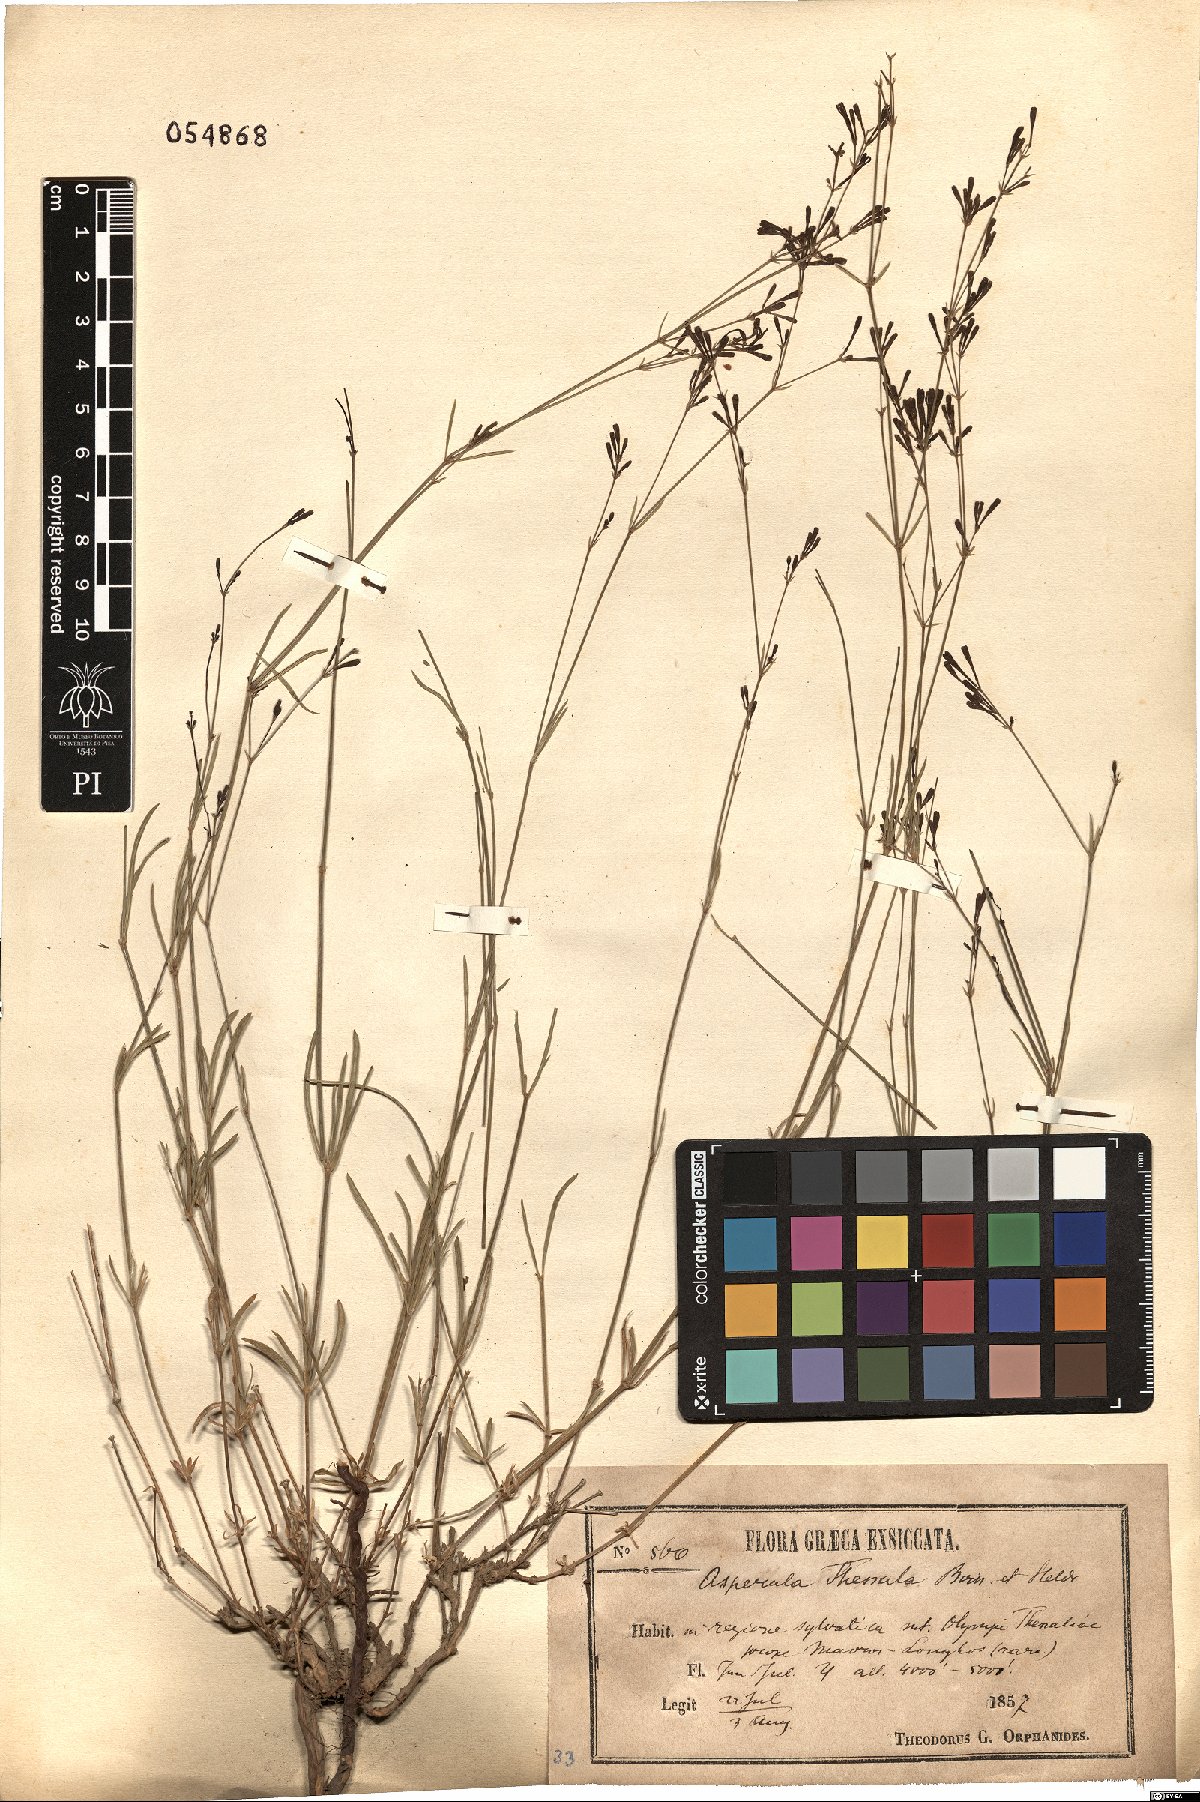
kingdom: Plantae
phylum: Tracheophyta
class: Magnoliopsida
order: Gentianales
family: Rubiaceae
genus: Cynanchica
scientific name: Cynanchica aristata
